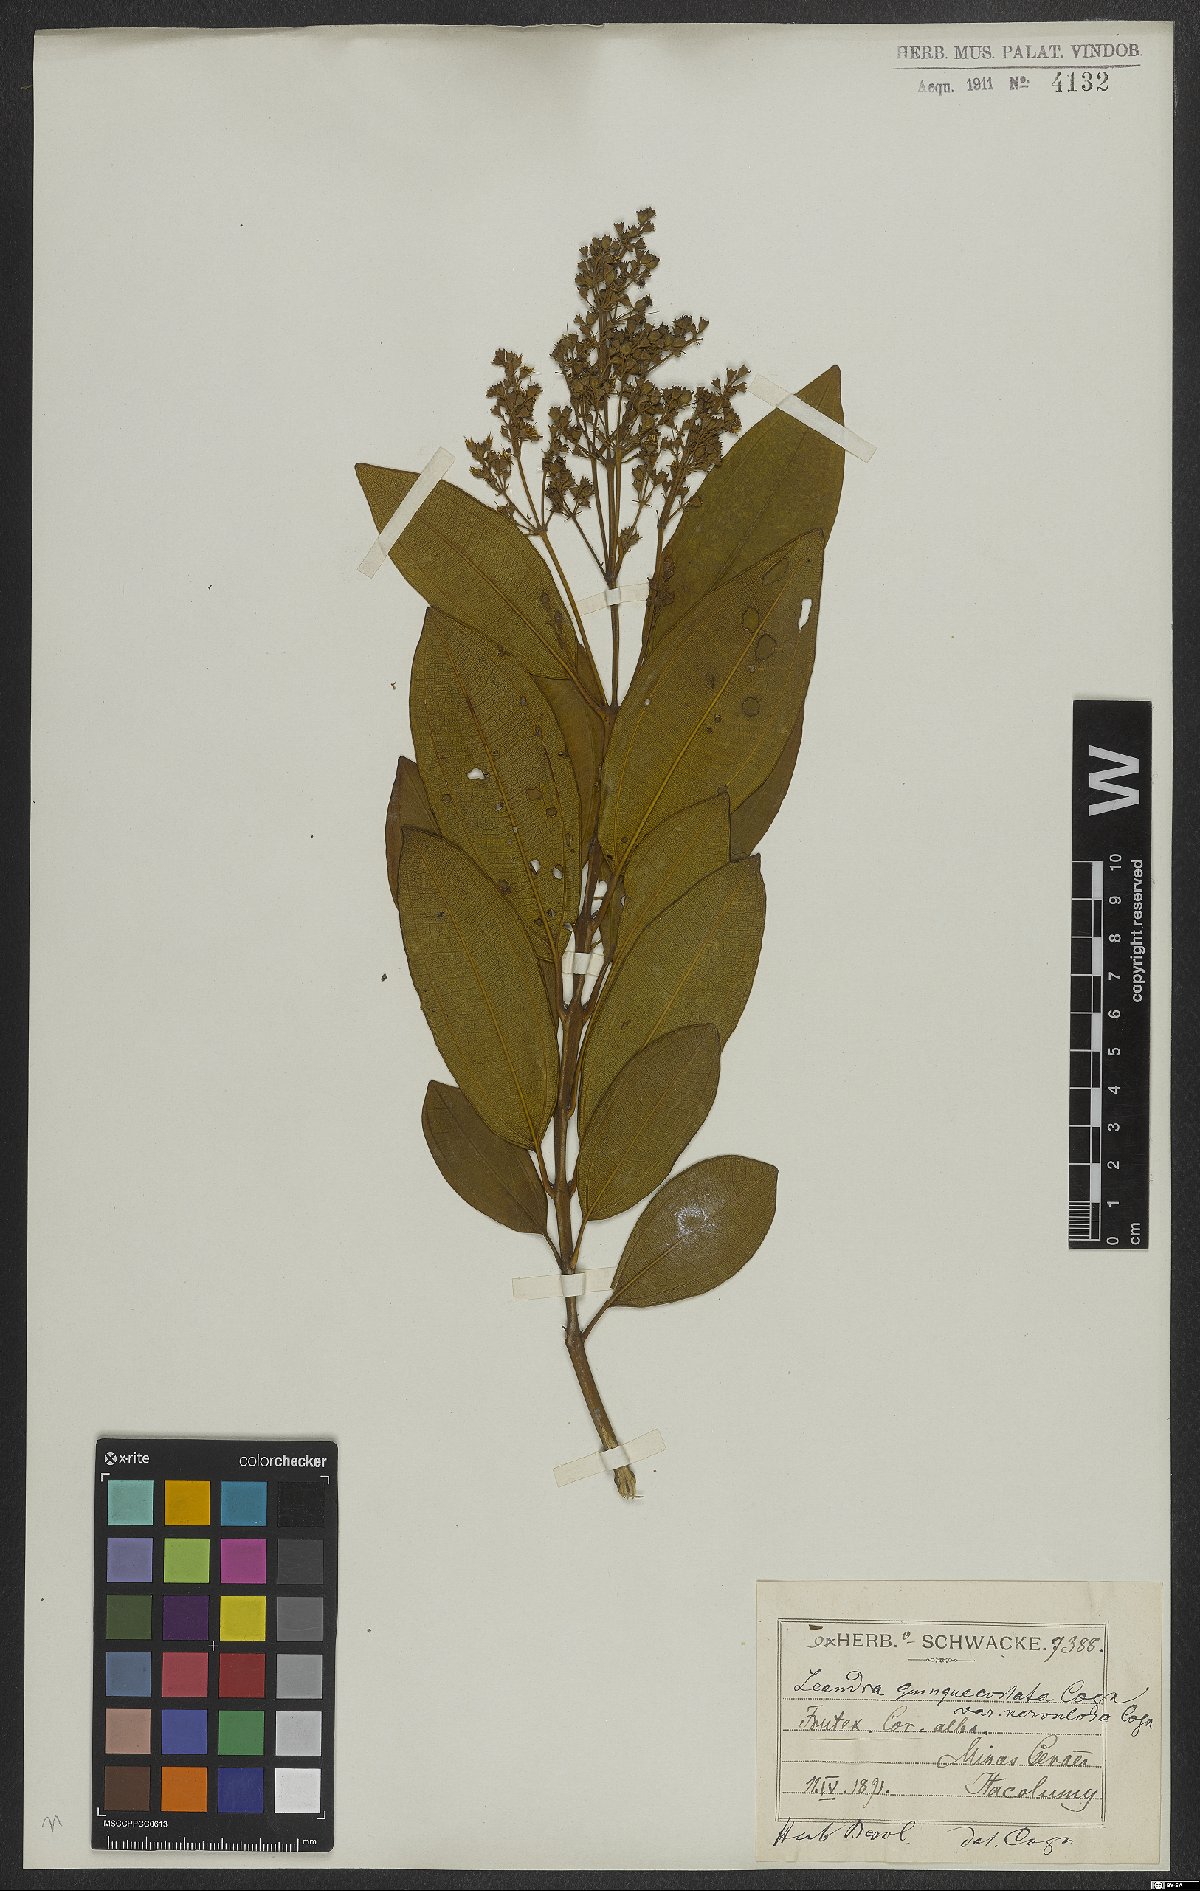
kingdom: Plantae
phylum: Tracheophyta
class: Magnoliopsida
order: Myrtales
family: Melastomataceae
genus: Miconia
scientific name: Miconia quinquedentata
